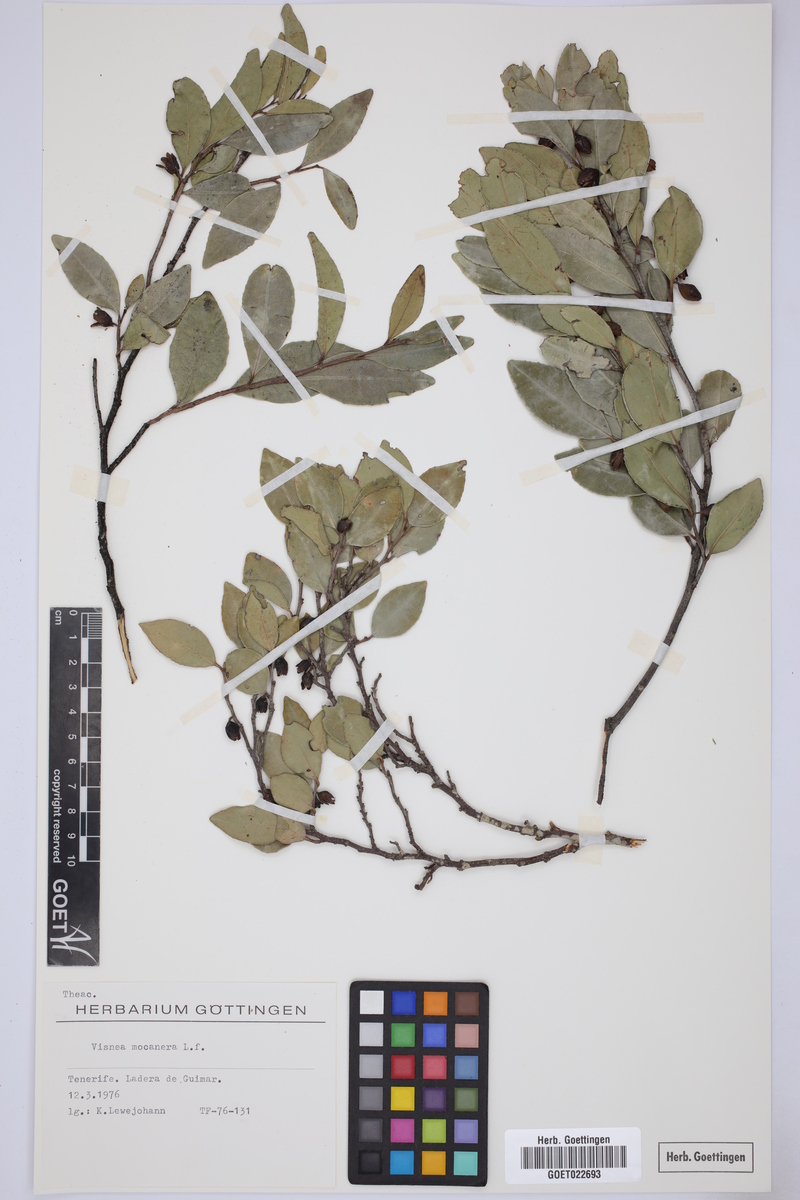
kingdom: Plantae
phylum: Tracheophyta
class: Magnoliopsida
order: Ericales
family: Pentaphylacaceae
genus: Visnea
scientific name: Visnea mocanera
